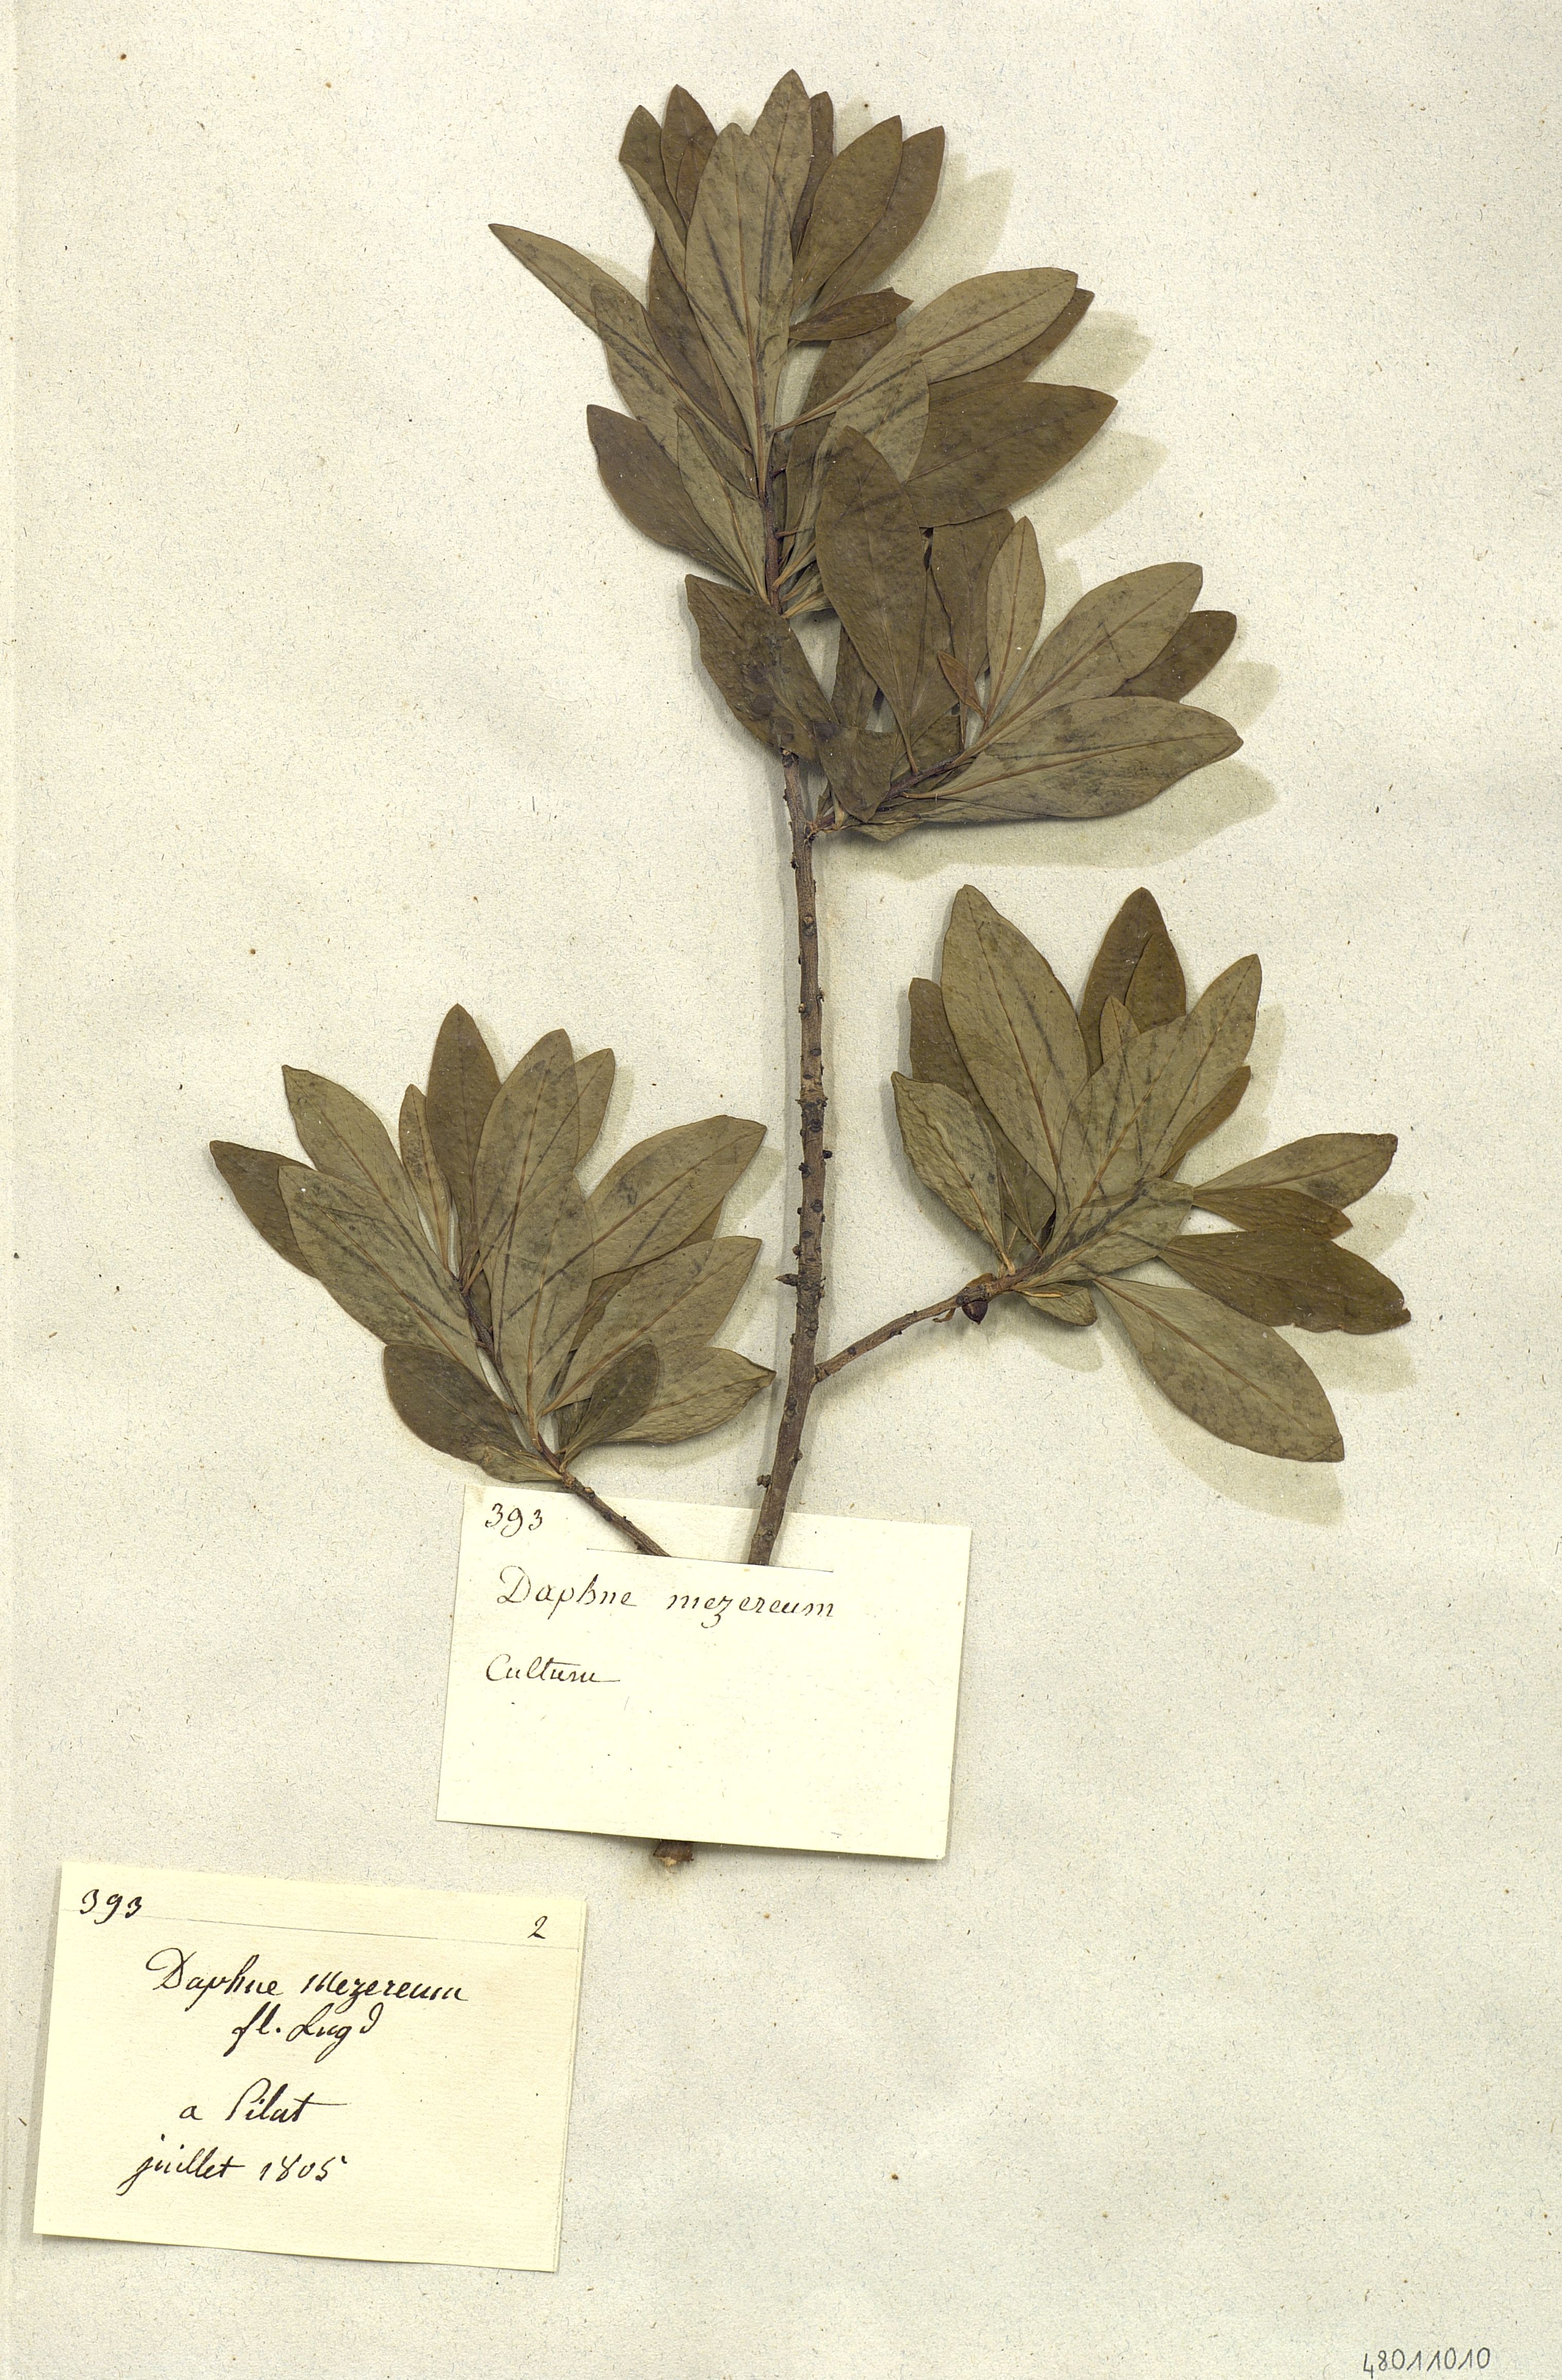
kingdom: Plantae
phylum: Tracheophyta
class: Magnoliopsida
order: Malvales
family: Thymelaeaceae
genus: Daphne
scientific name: Daphne mezereum
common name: Mezereon
